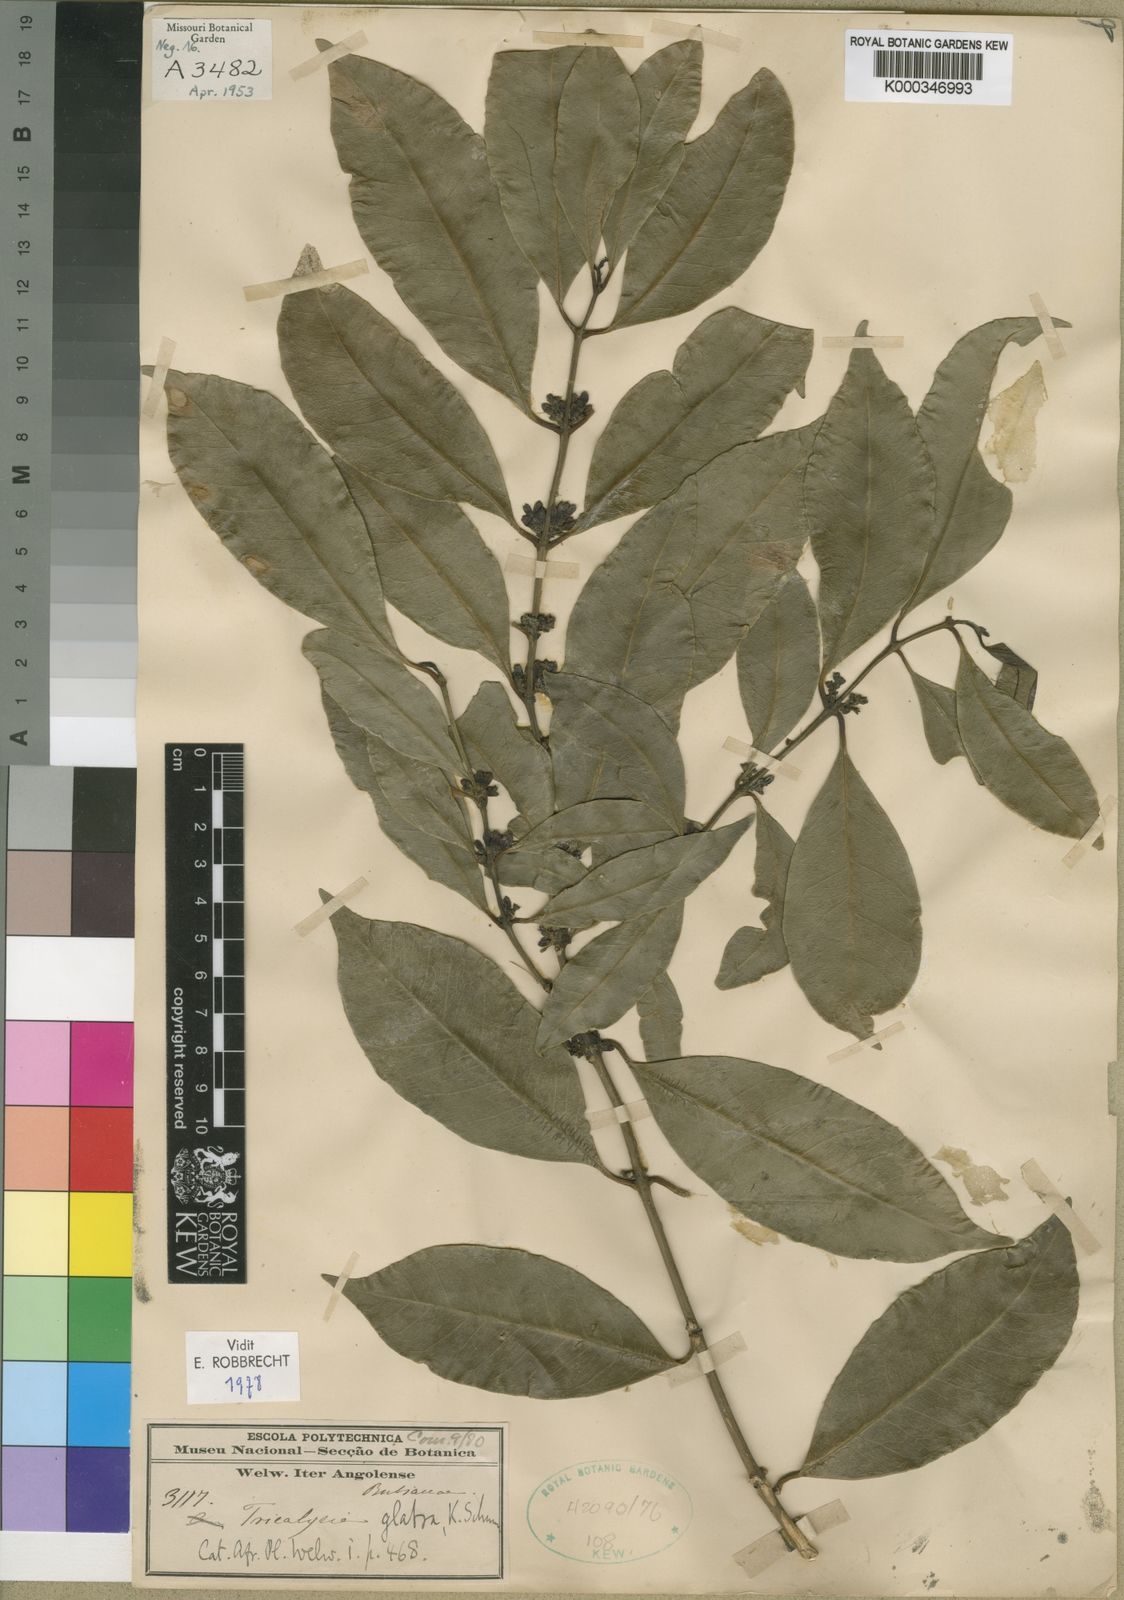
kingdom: Plantae
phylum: Tracheophyta
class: Magnoliopsida
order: Gentianales
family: Rubiaceae
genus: Empogona
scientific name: Empogona glabra
